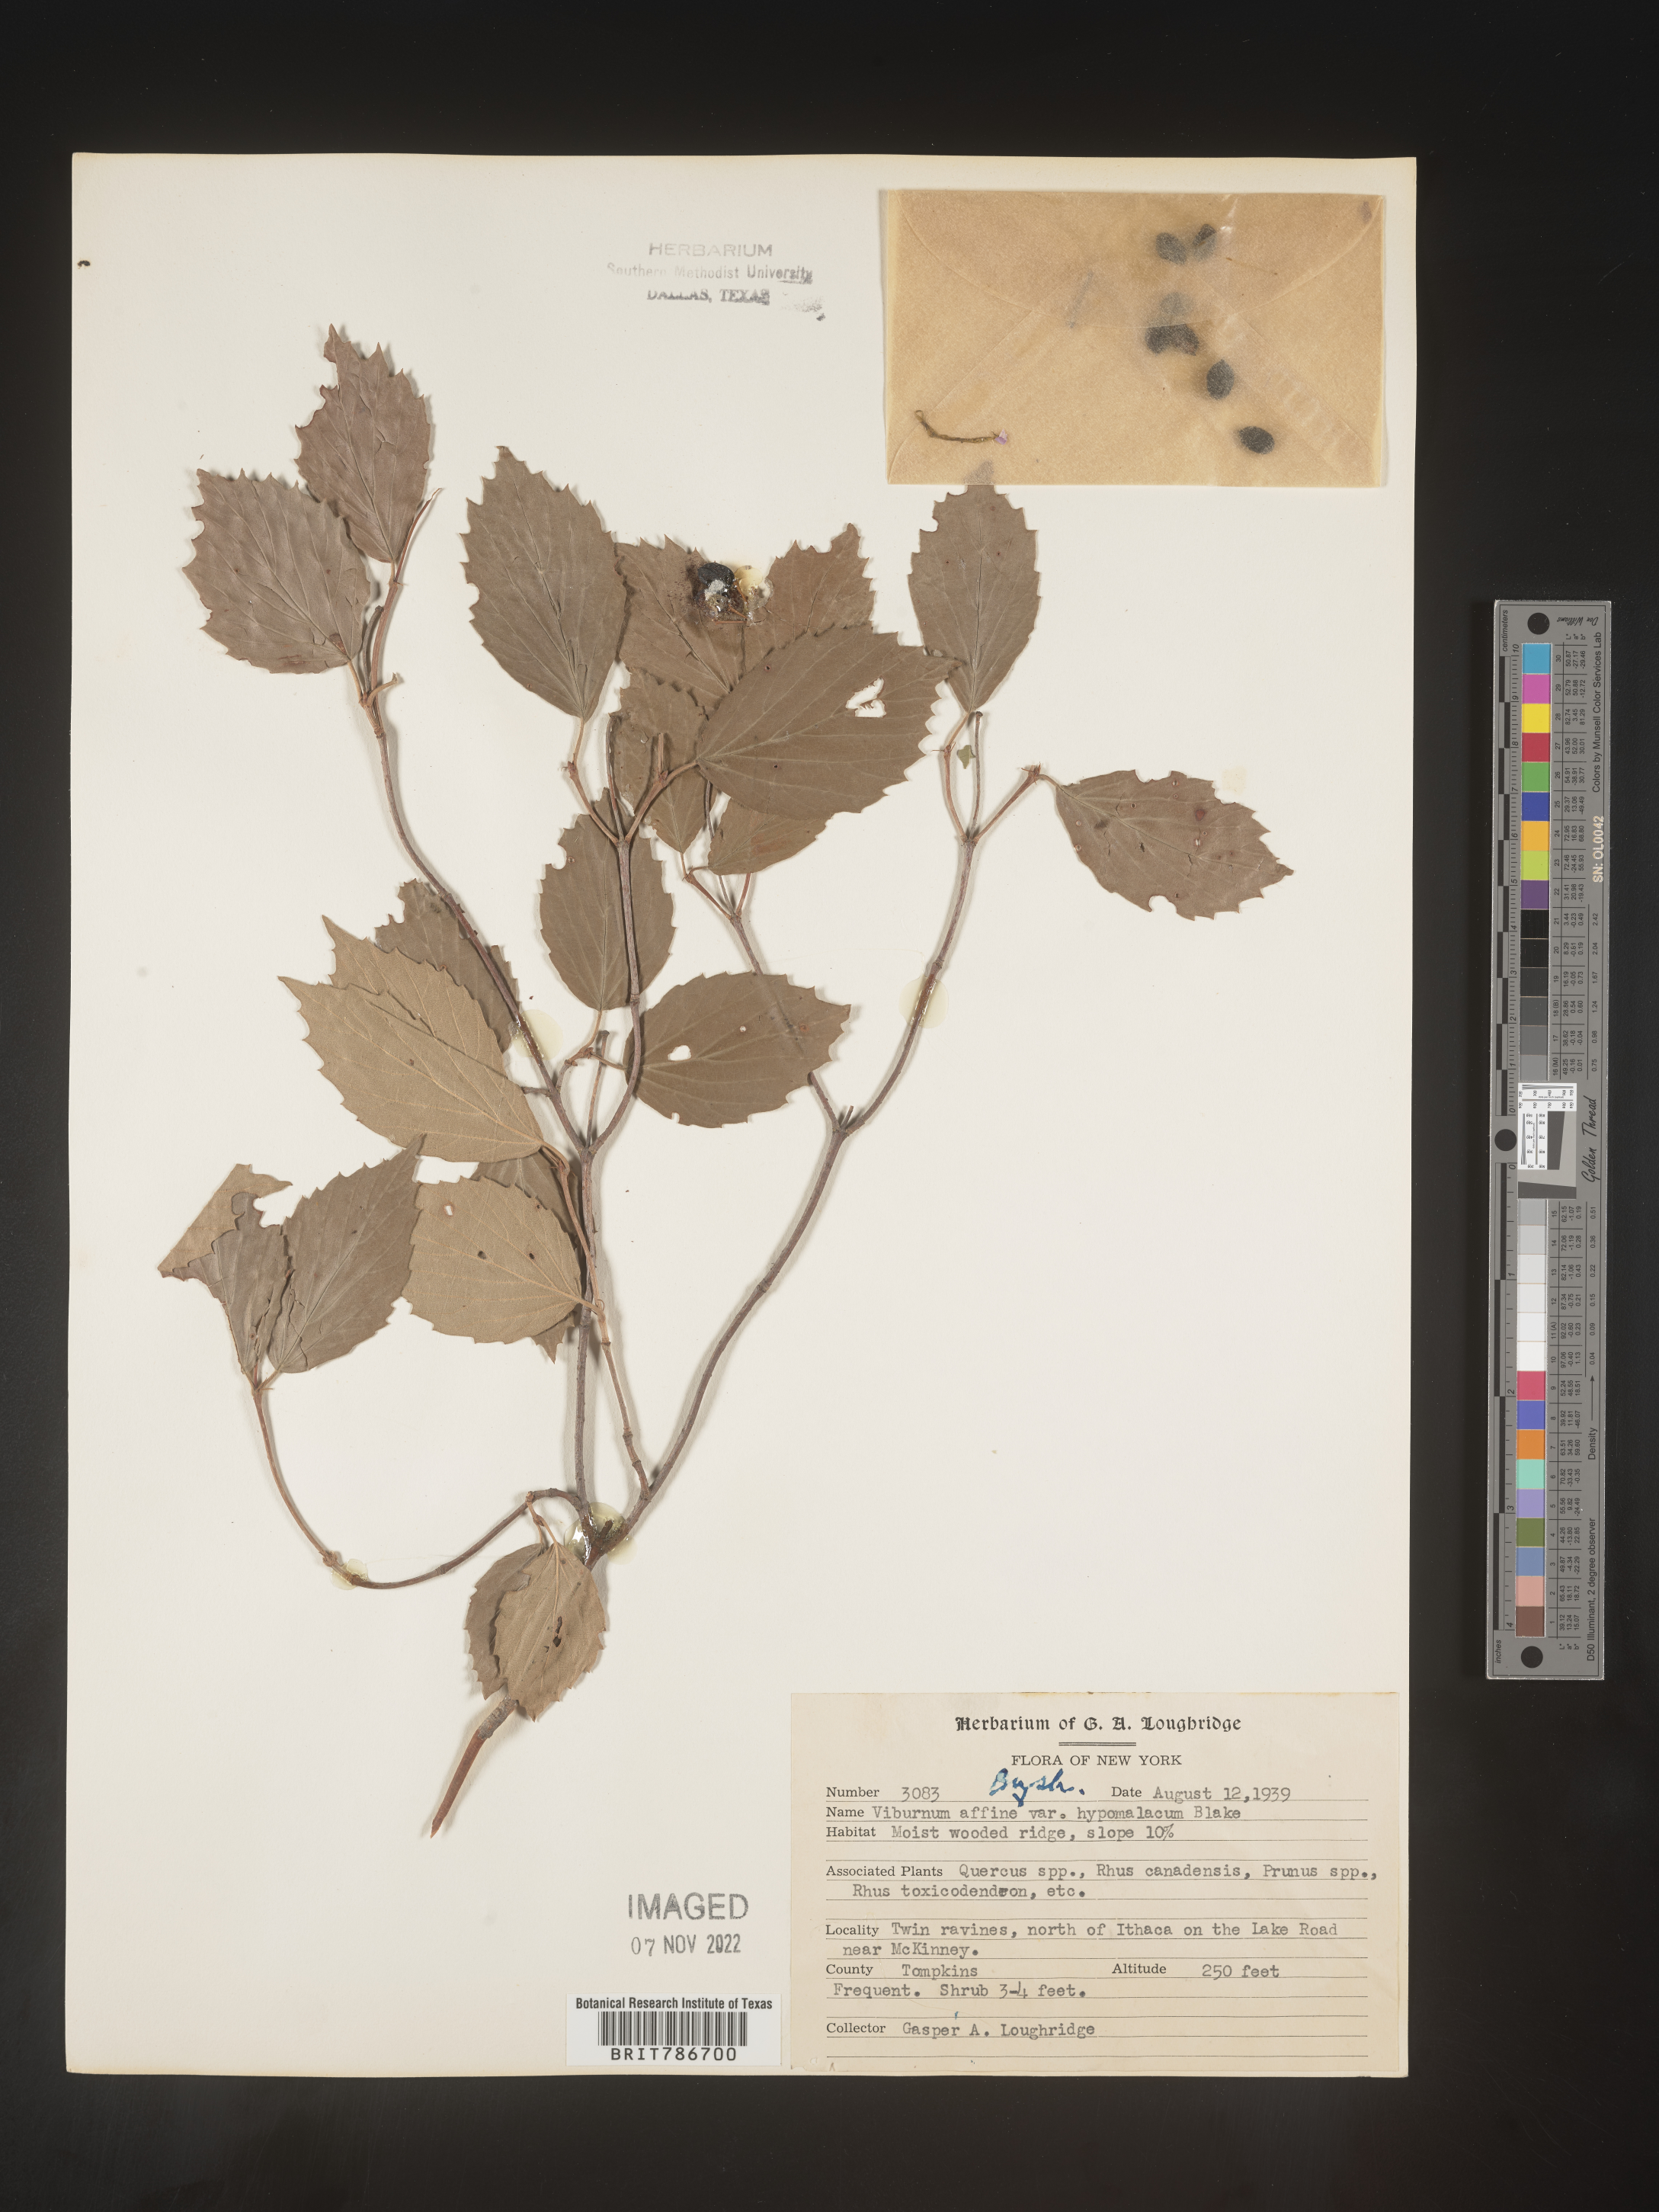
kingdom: Plantae
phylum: Tracheophyta
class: Magnoliopsida
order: Dipsacales
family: Viburnaceae
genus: Viburnum
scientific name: Viburnum rafinesqueanum
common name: Downy arrow-wood
